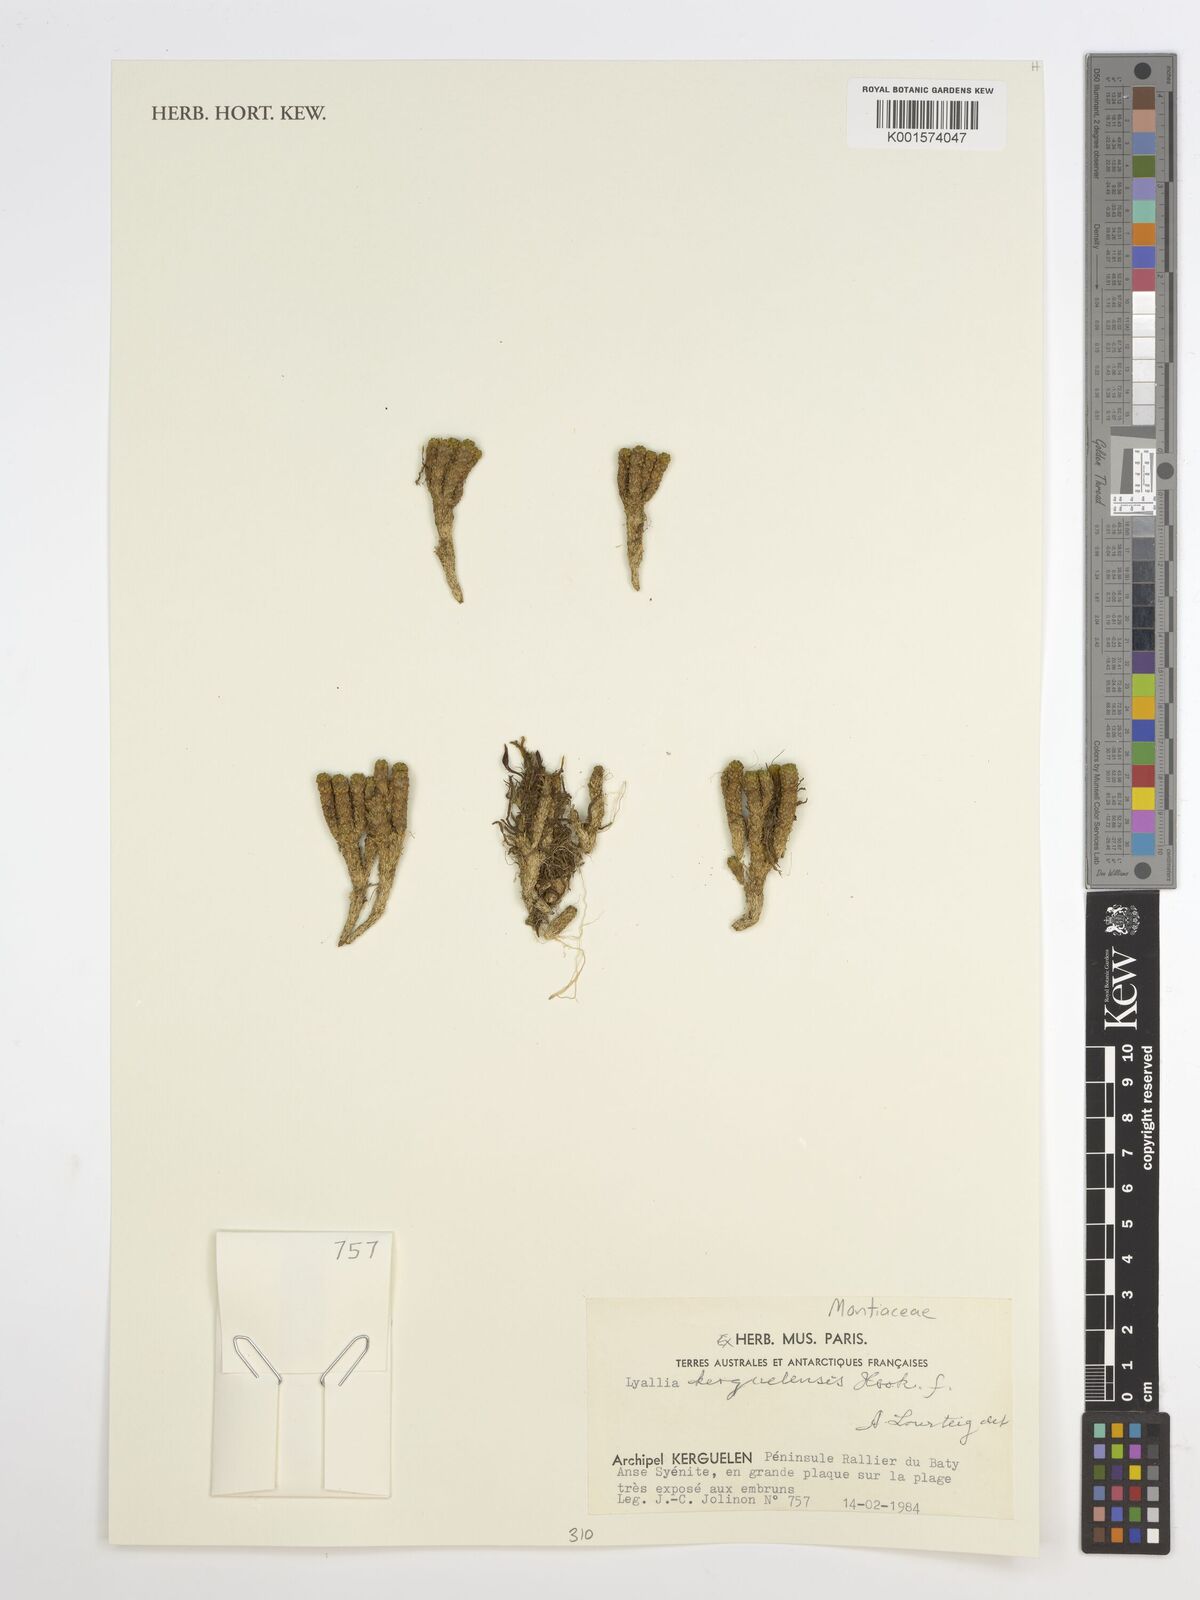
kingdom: Plantae
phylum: Tracheophyta
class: Magnoliopsida
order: Caryophyllales
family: Montiaceae
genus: Lyallia
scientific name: Lyallia kerguelensis
